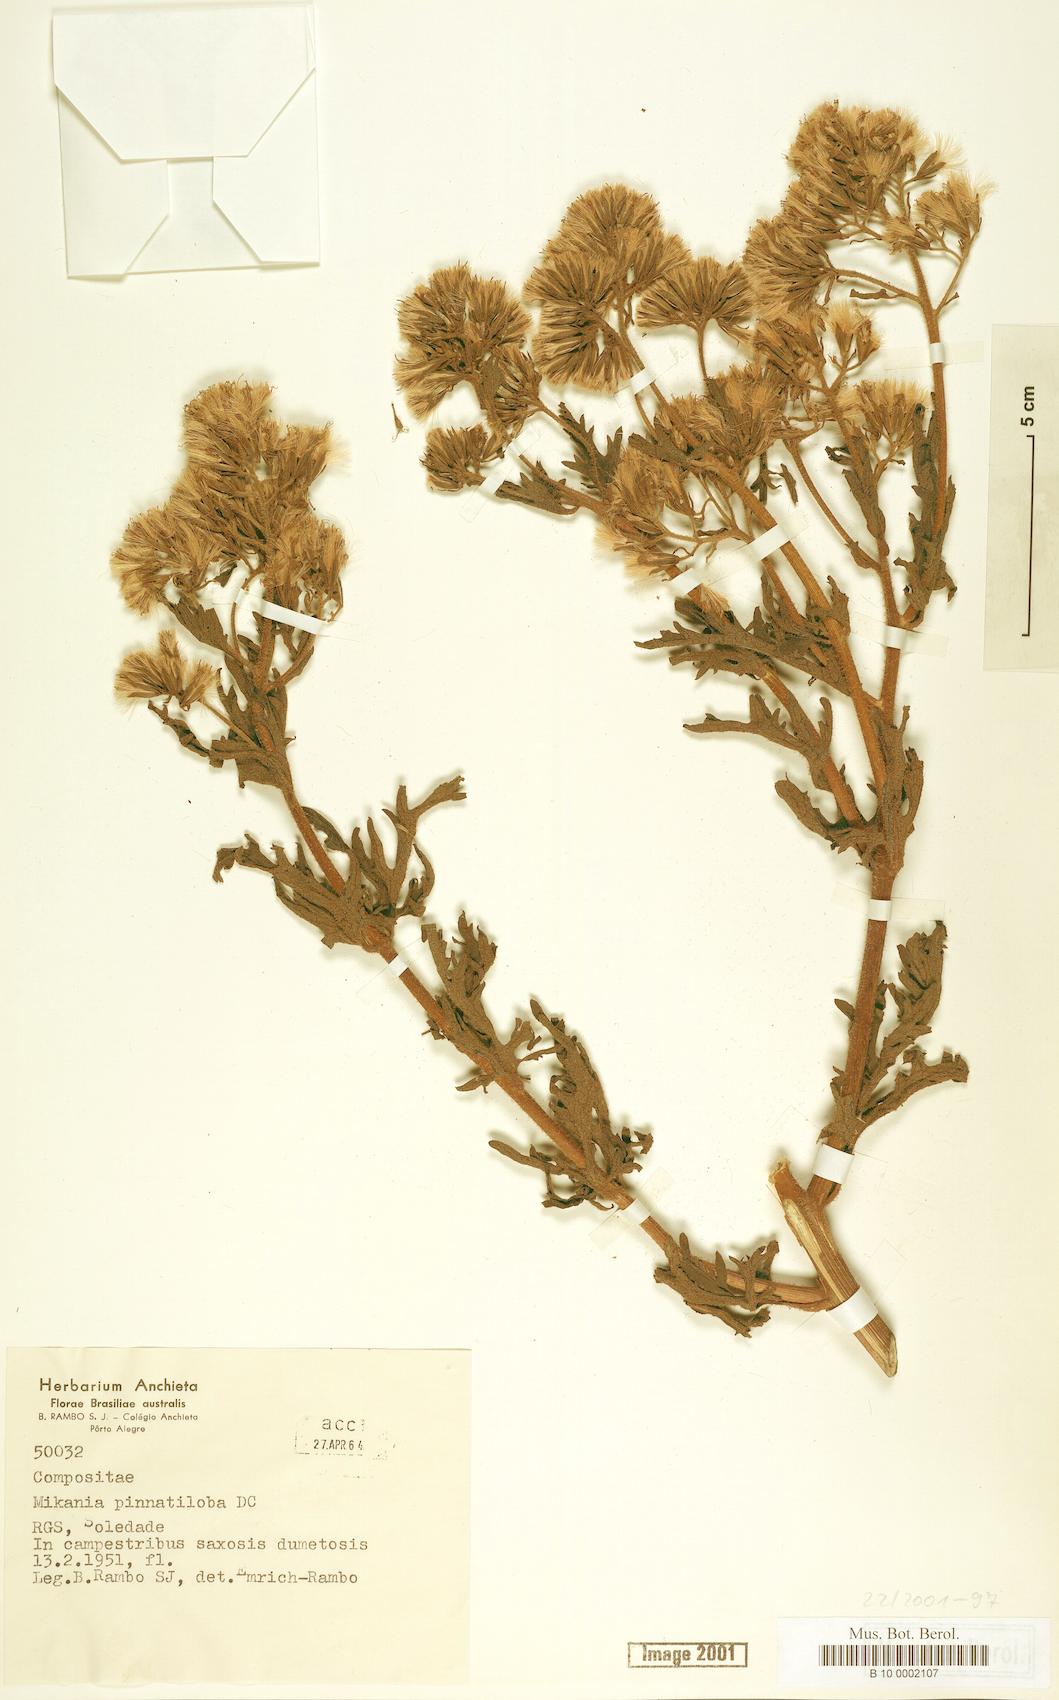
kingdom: Plantae
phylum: Tracheophyta
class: Magnoliopsida
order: Asterales
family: Asteraceae
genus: Mikania
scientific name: Mikania pinnatiloba
